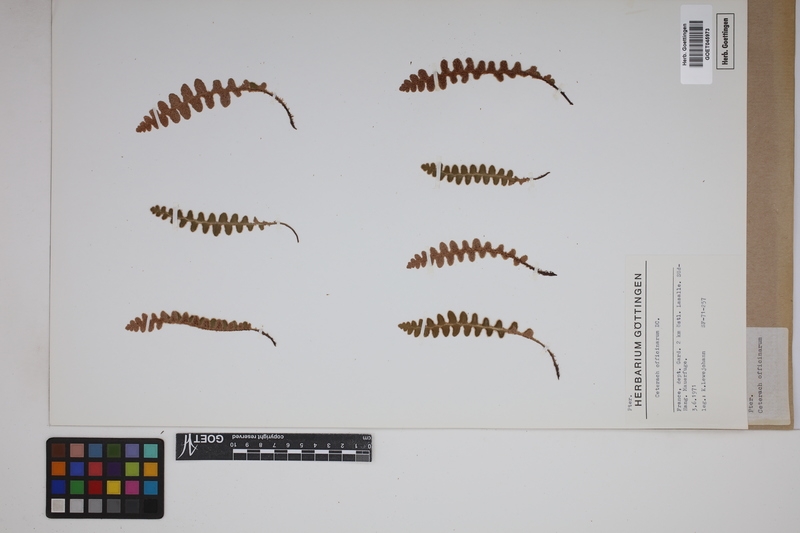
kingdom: Plantae
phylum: Tracheophyta
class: Polypodiopsida
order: Polypodiales
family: Aspleniaceae
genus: Asplenium
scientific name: Asplenium ceterach
